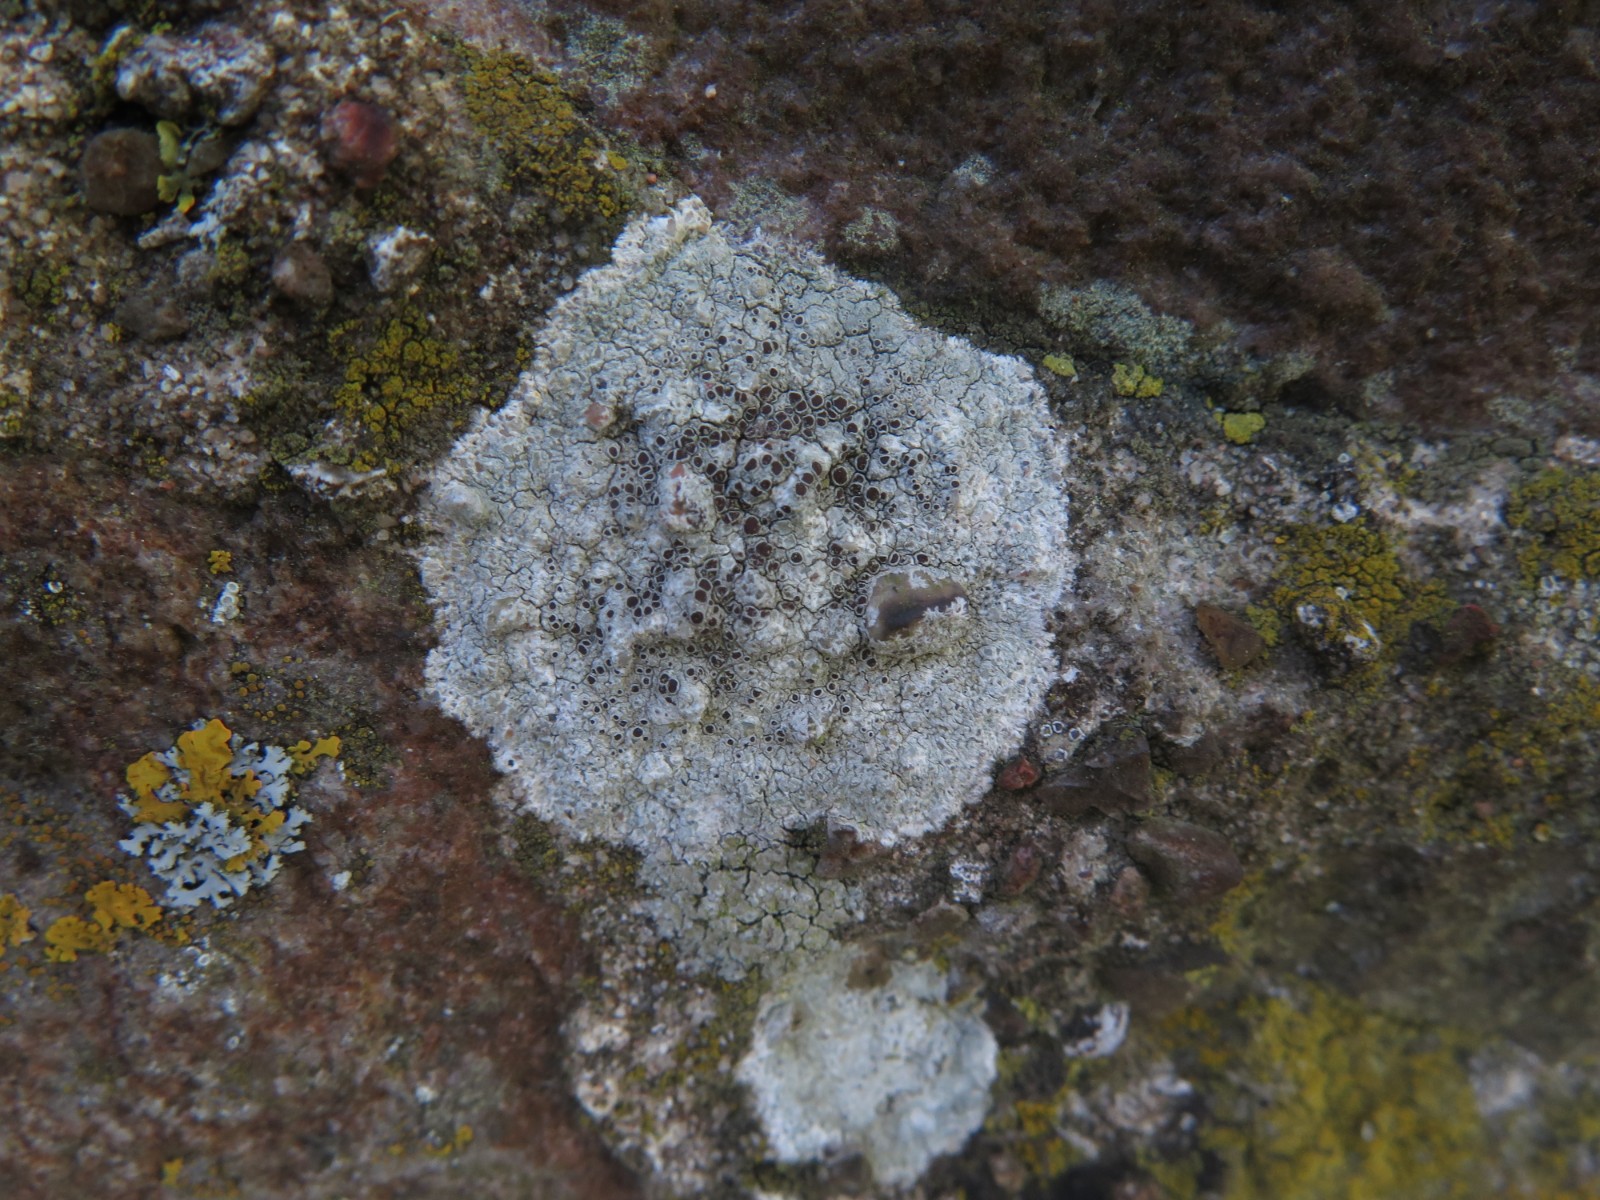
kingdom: Fungi
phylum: Ascomycota
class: Lecanoromycetes
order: Lecanorales
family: Lecanoraceae
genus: Lecanora
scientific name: Lecanora campestris
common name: mur-kantskivelav
